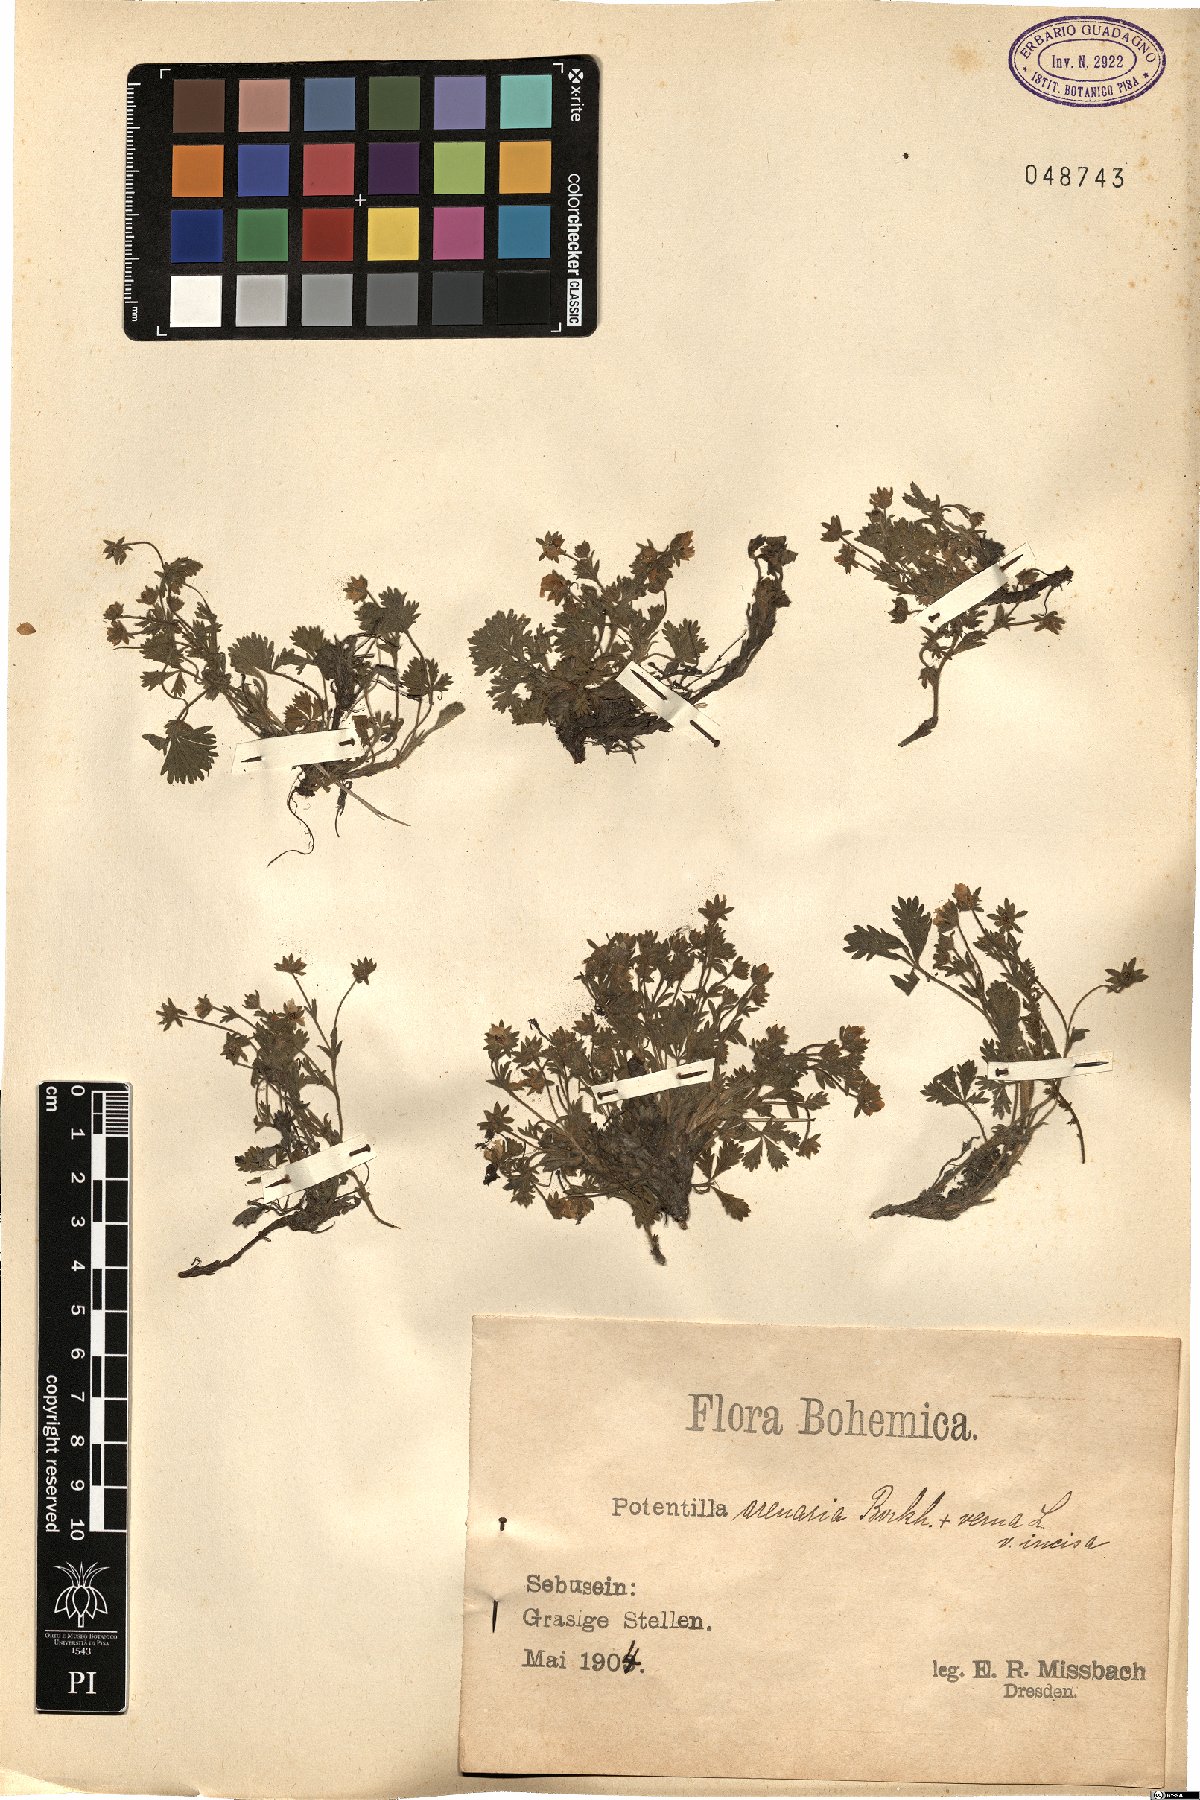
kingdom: Plantae
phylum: Tracheophyta
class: Magnoliopsida
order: Rosales
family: Rosaceae
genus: Potentilla
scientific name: Potentilla cinerea
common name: Ashy cinquefoil
